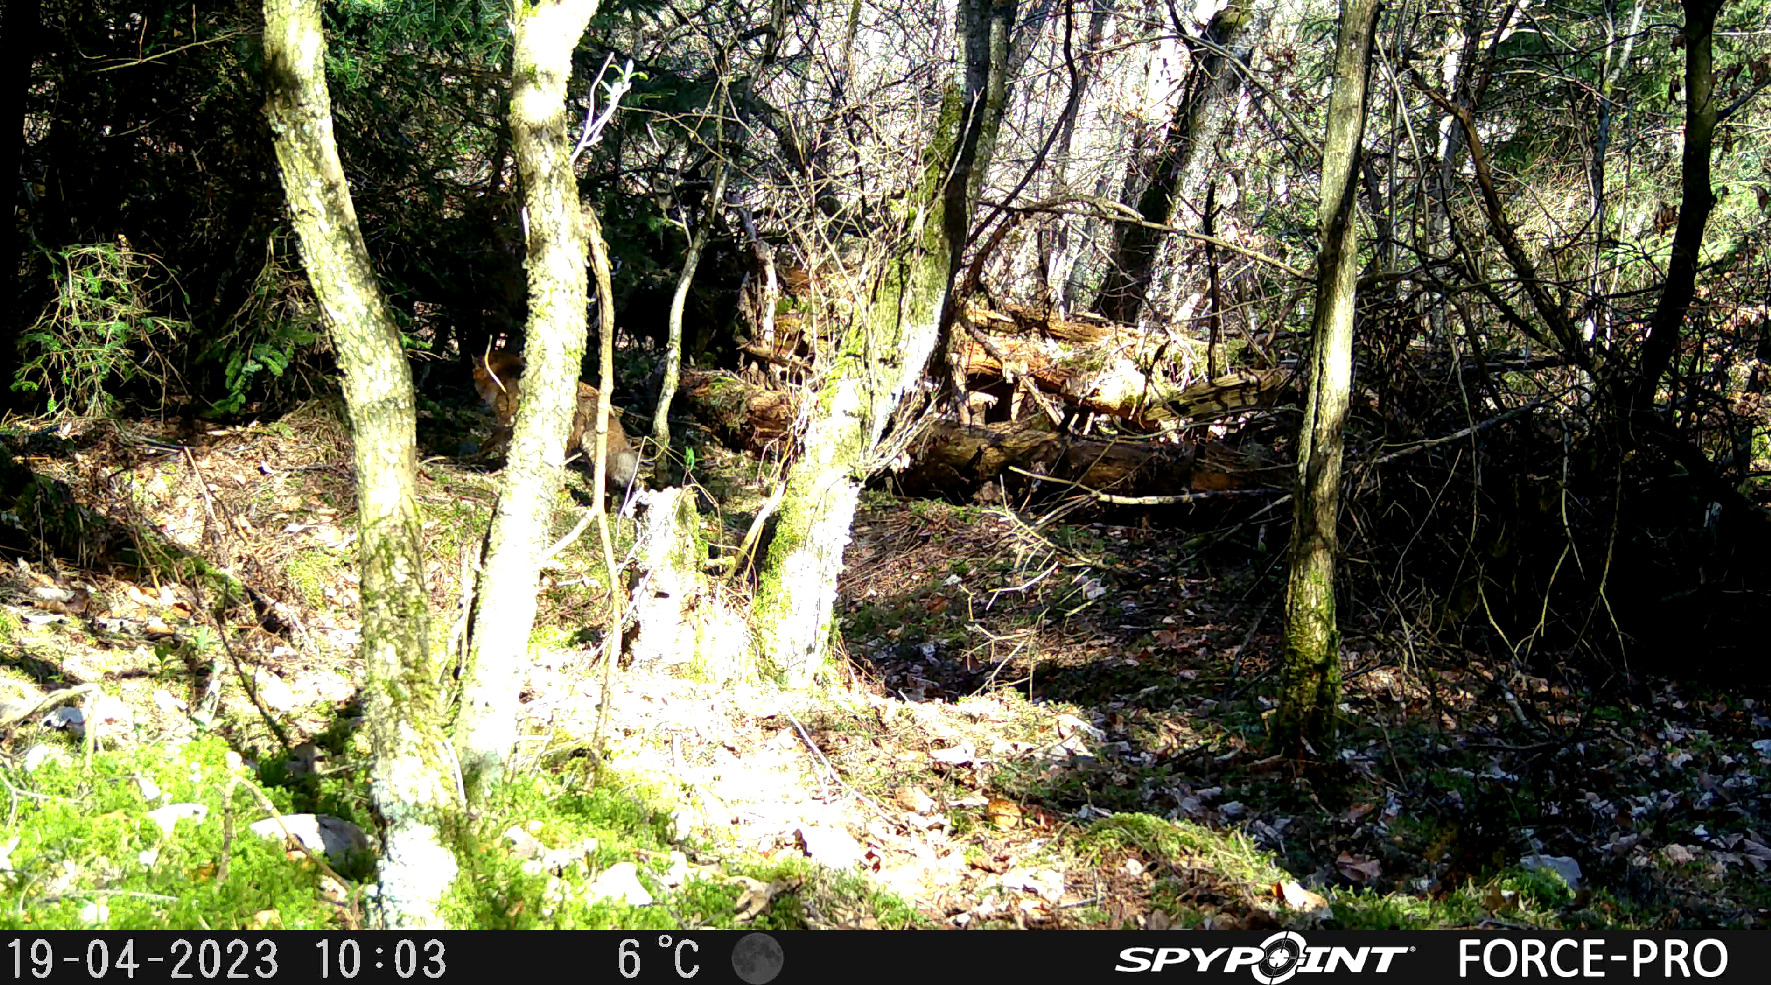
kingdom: Animalia
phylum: Chordata
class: Mammalia
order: Carnivora
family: Canidae
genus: Vulpes
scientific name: Vulpes vulpes
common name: Ræv
